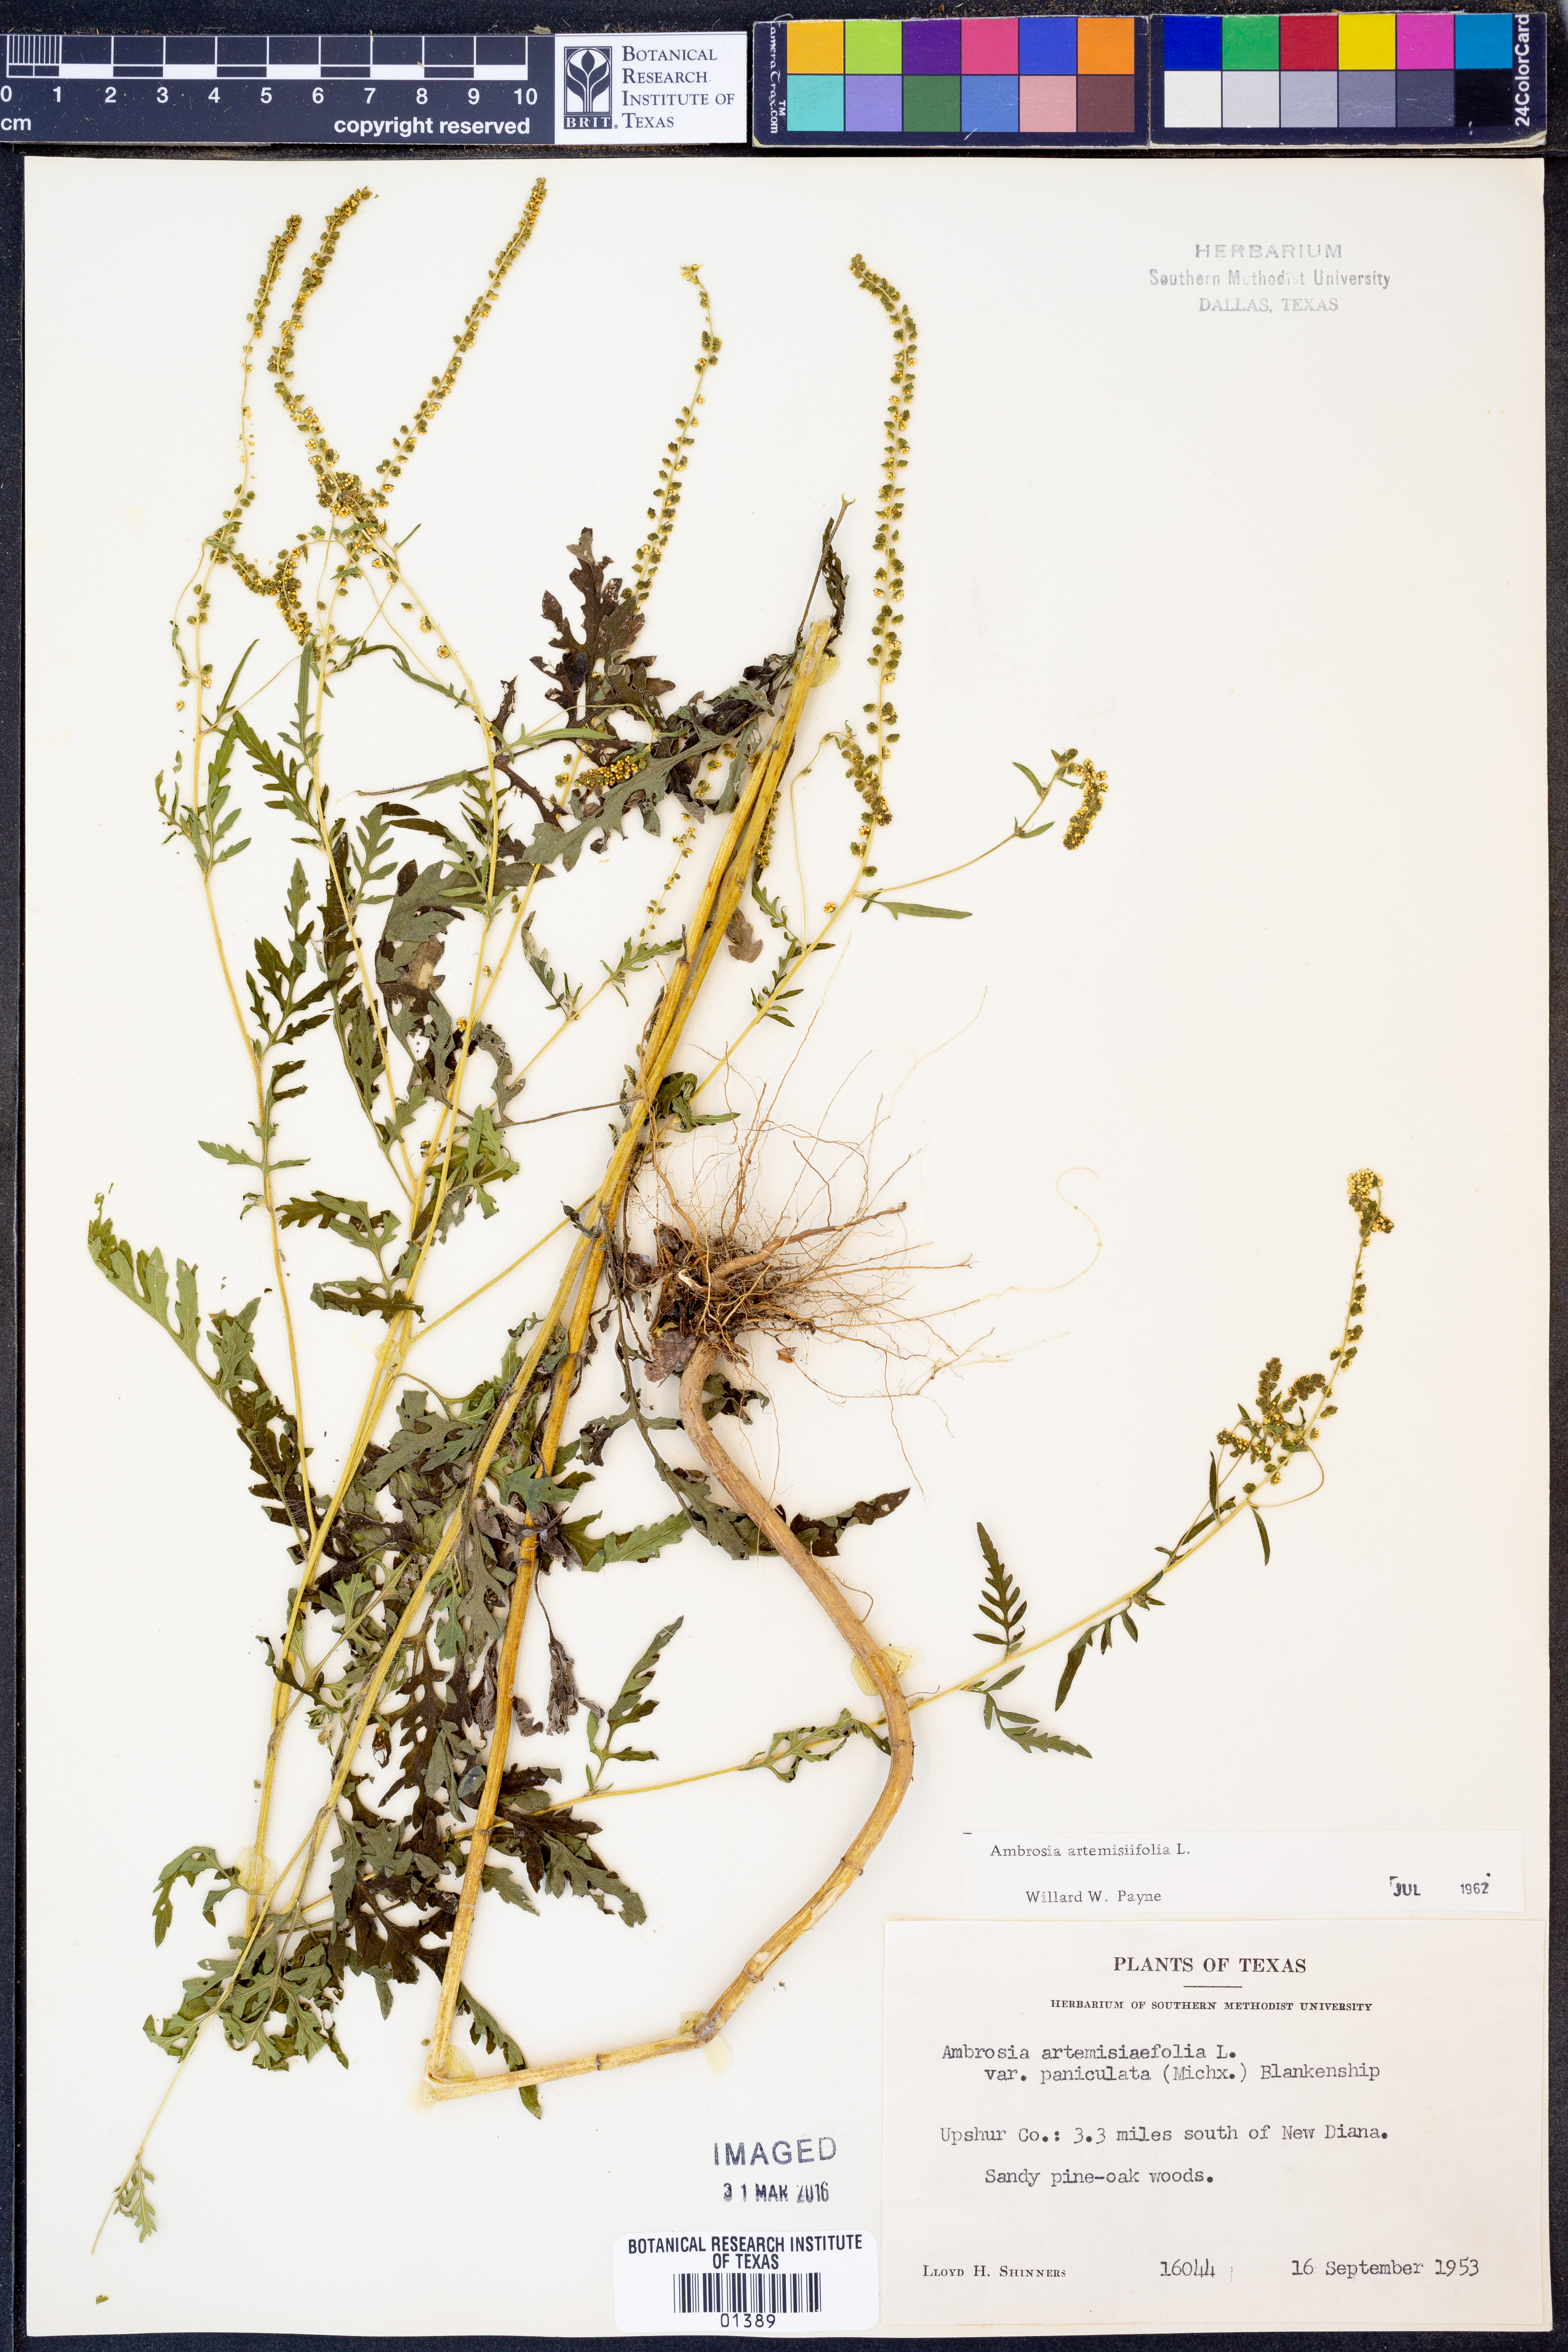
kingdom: Plantae
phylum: Tracheophyta
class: Magnoliopsida
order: Asterales
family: Asteraceae
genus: Ambrosia
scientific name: Ambrosia artemisiifolia
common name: Annual ragweed
